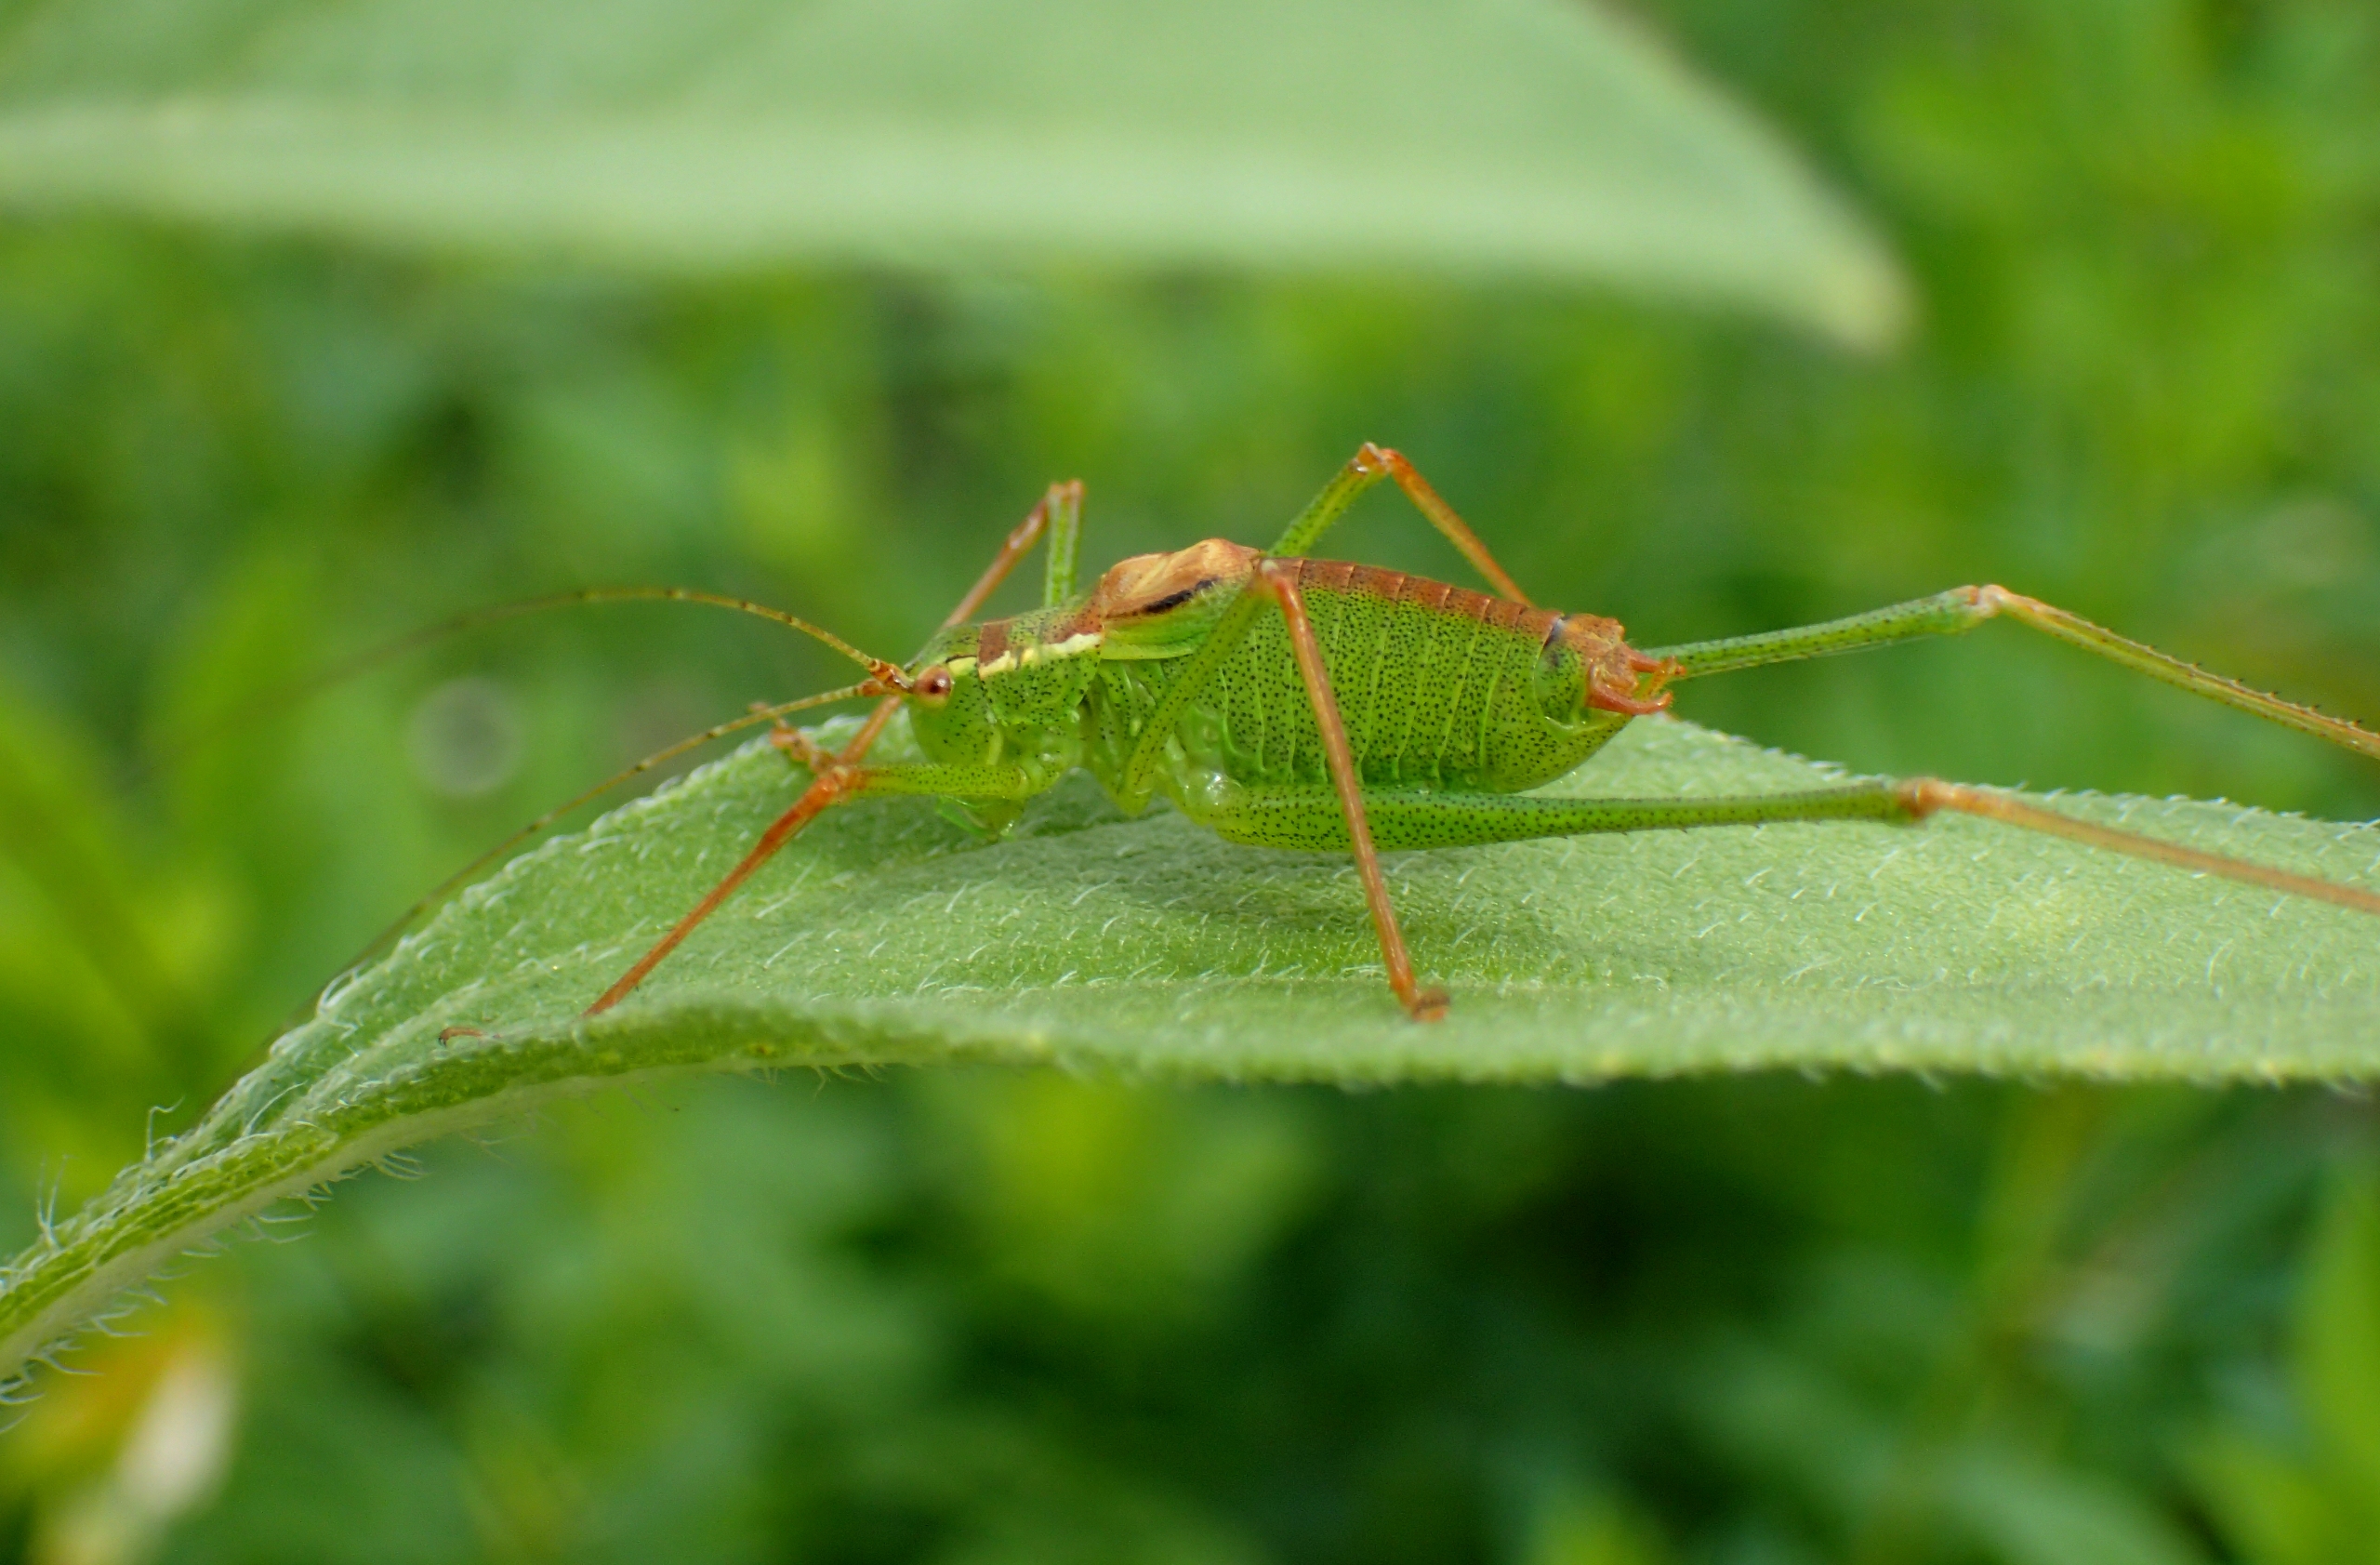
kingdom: Animalia
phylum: Arthropoda
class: Insecta
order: Orthoptera
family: Tettigoniidae
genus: Leptophyes
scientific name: Leptophyes punctatissima
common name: Krumknivgræshoppe
